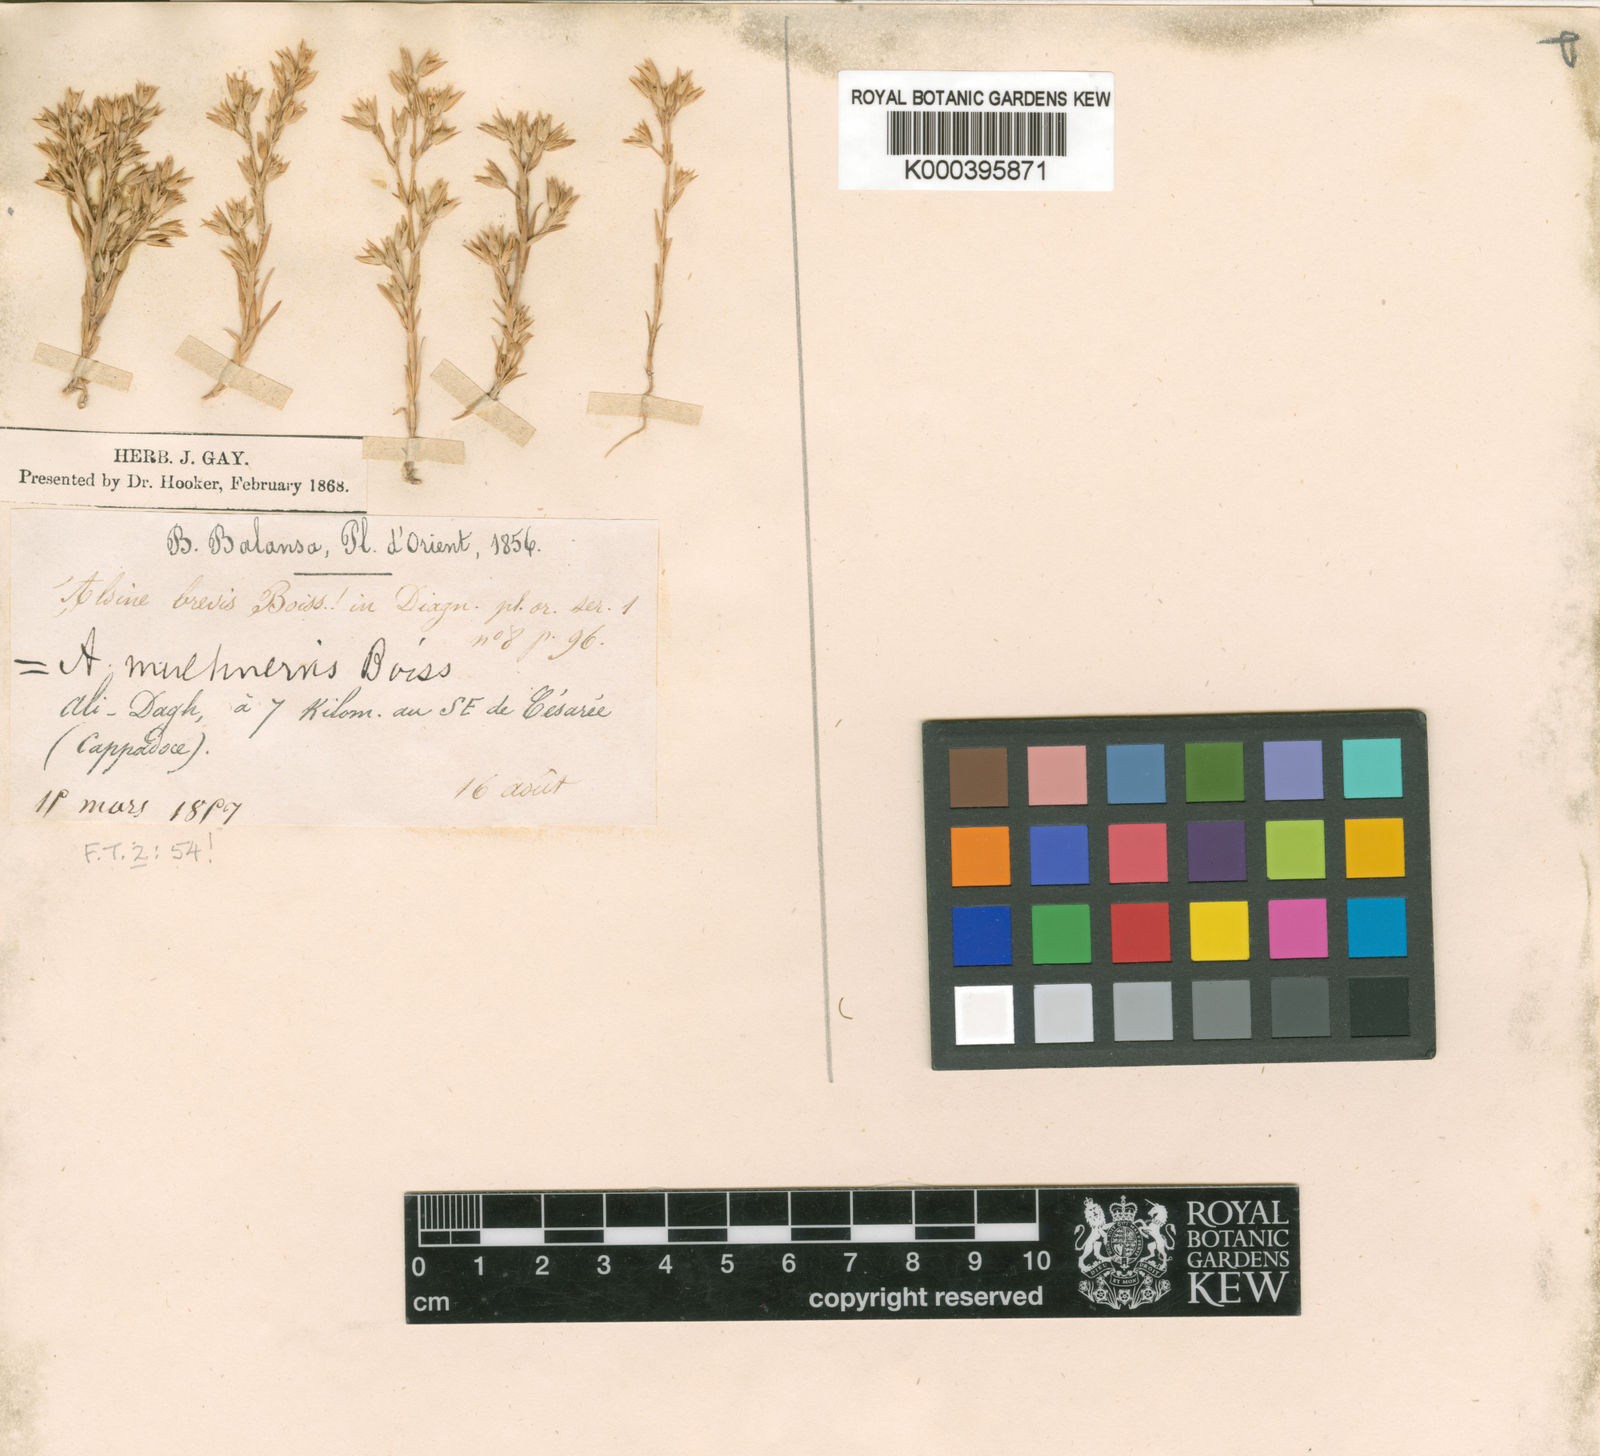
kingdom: Plantae
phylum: Tracheophyta
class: Magnoliopsida
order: Caryophyllales
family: Caryophyllaceae
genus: Minuartia
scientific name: Minuartia
